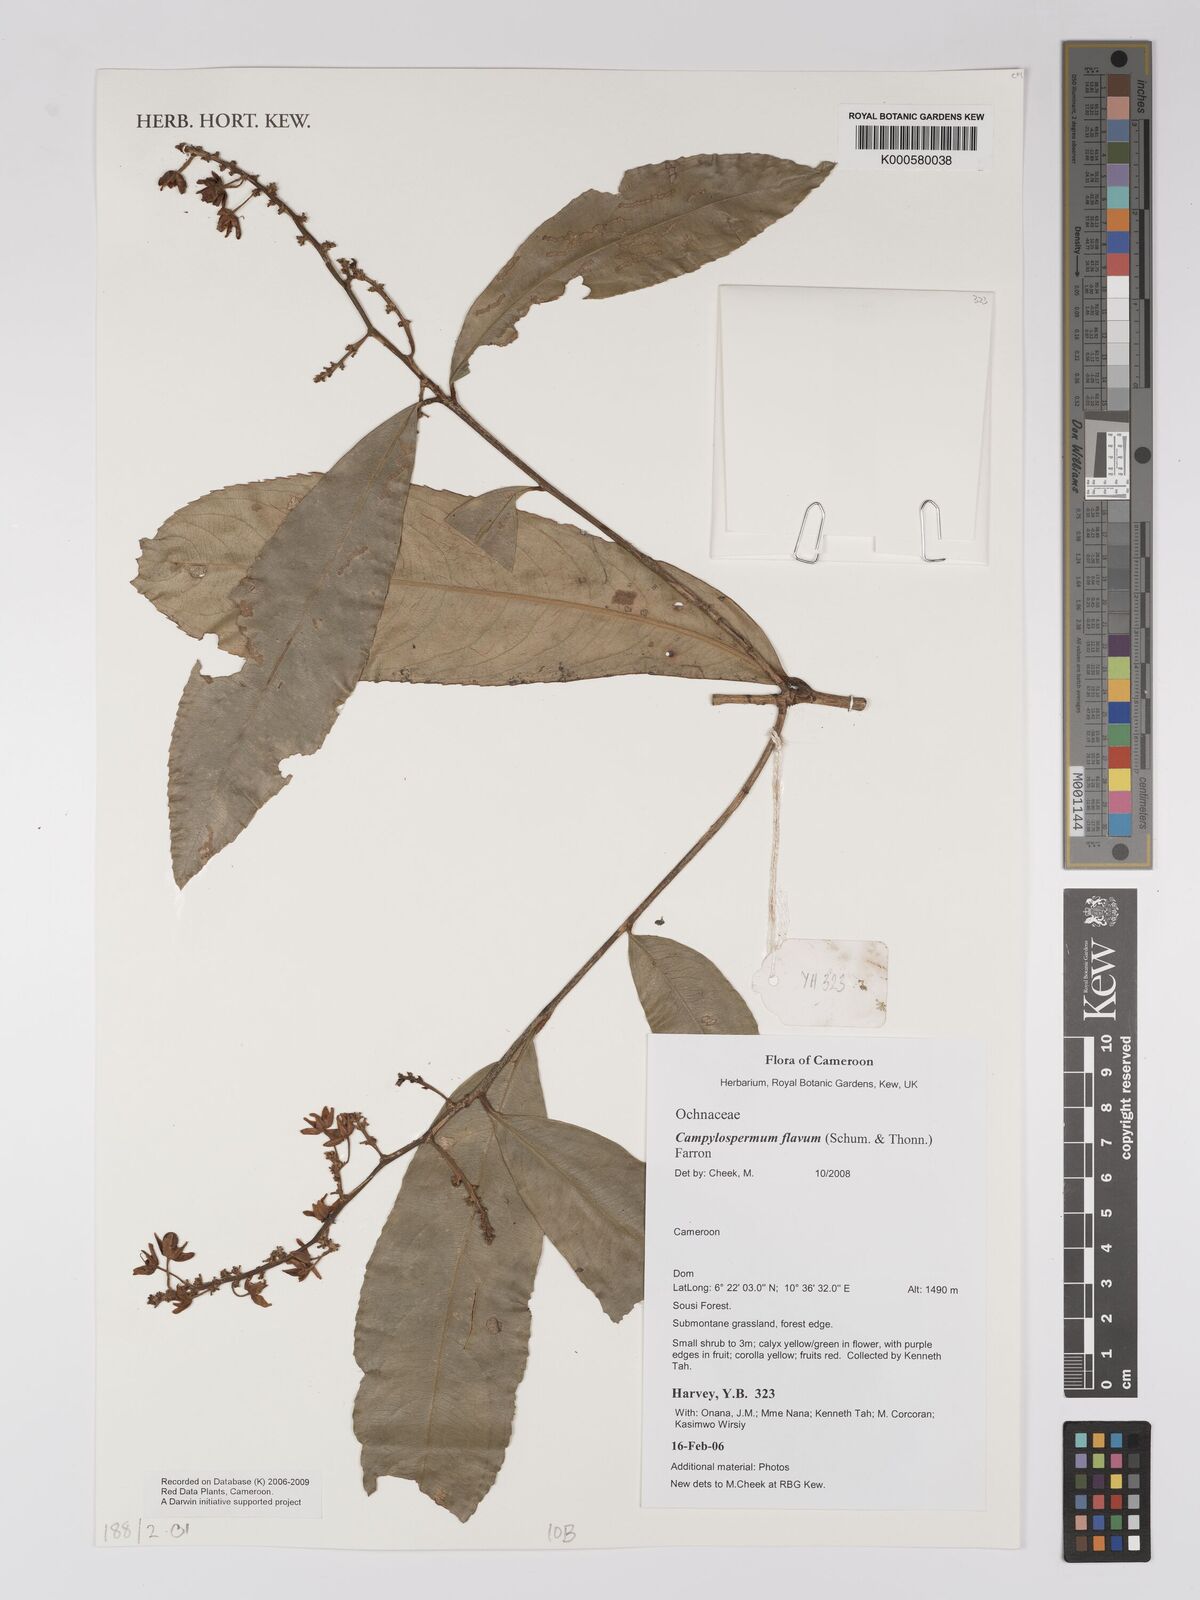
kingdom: Plantae
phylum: Tracheophyta
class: Magnoliopsida
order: Malpighiales
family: Ochnaceae
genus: Campylospermum
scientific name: Campylospermum flavum
